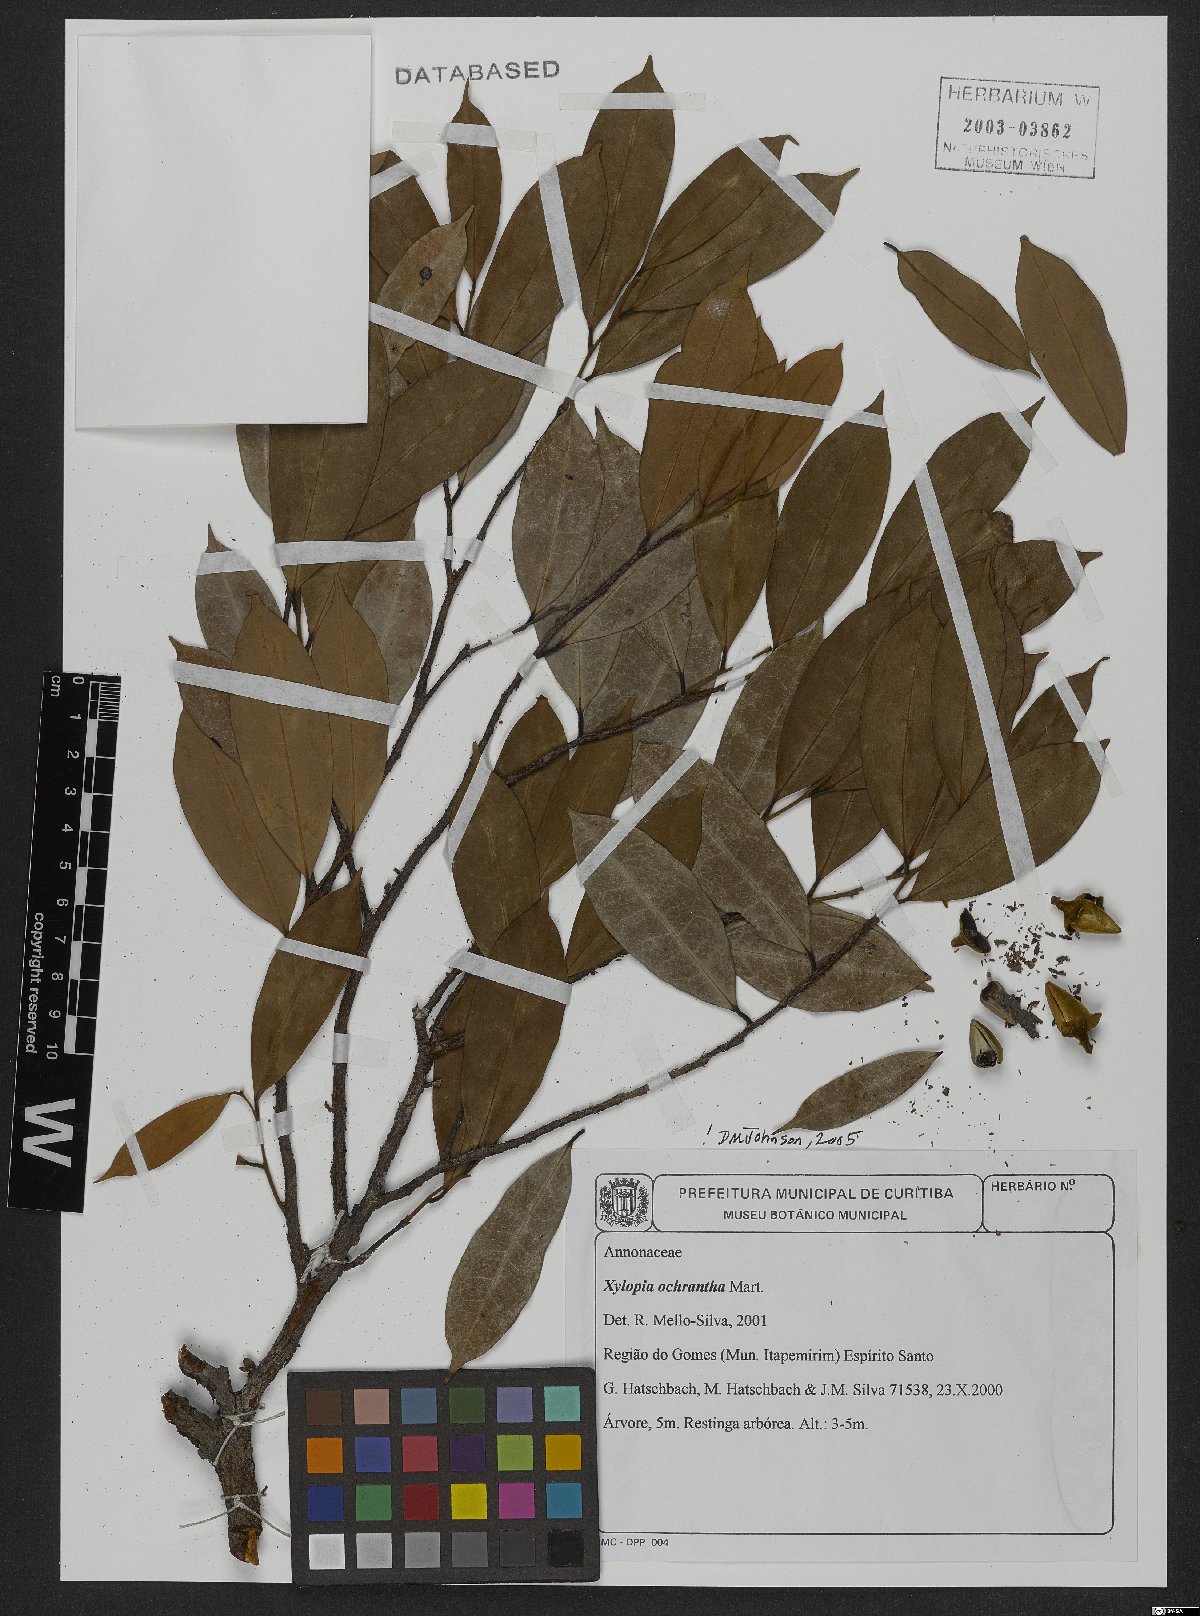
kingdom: Plantae
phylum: Tracheophyta
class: Magnoliopsida
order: Magnoliales
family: Annonaceae
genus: Xylopia
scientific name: Xylopia ochrantha
